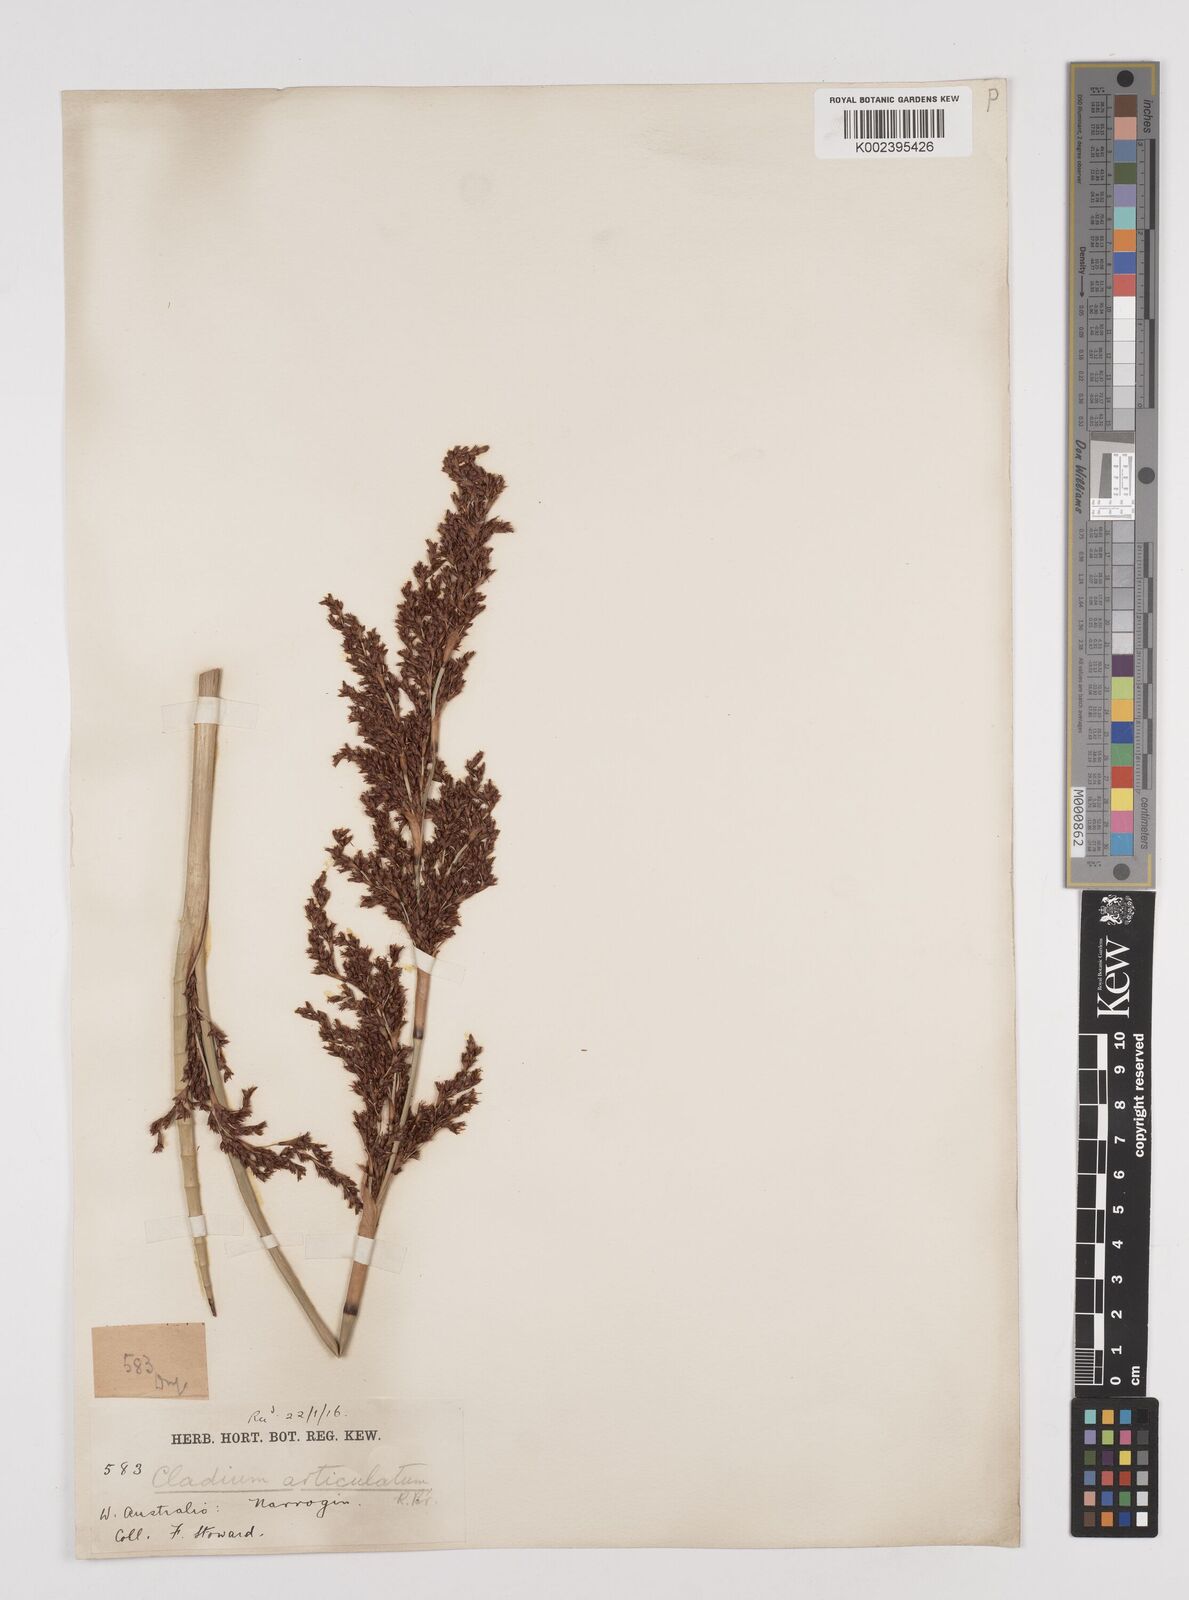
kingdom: Plantae
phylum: Tracheophyta
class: Liliopsida
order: Poales
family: Cyperaceae
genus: Machaerina
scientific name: Machaerina articulata
